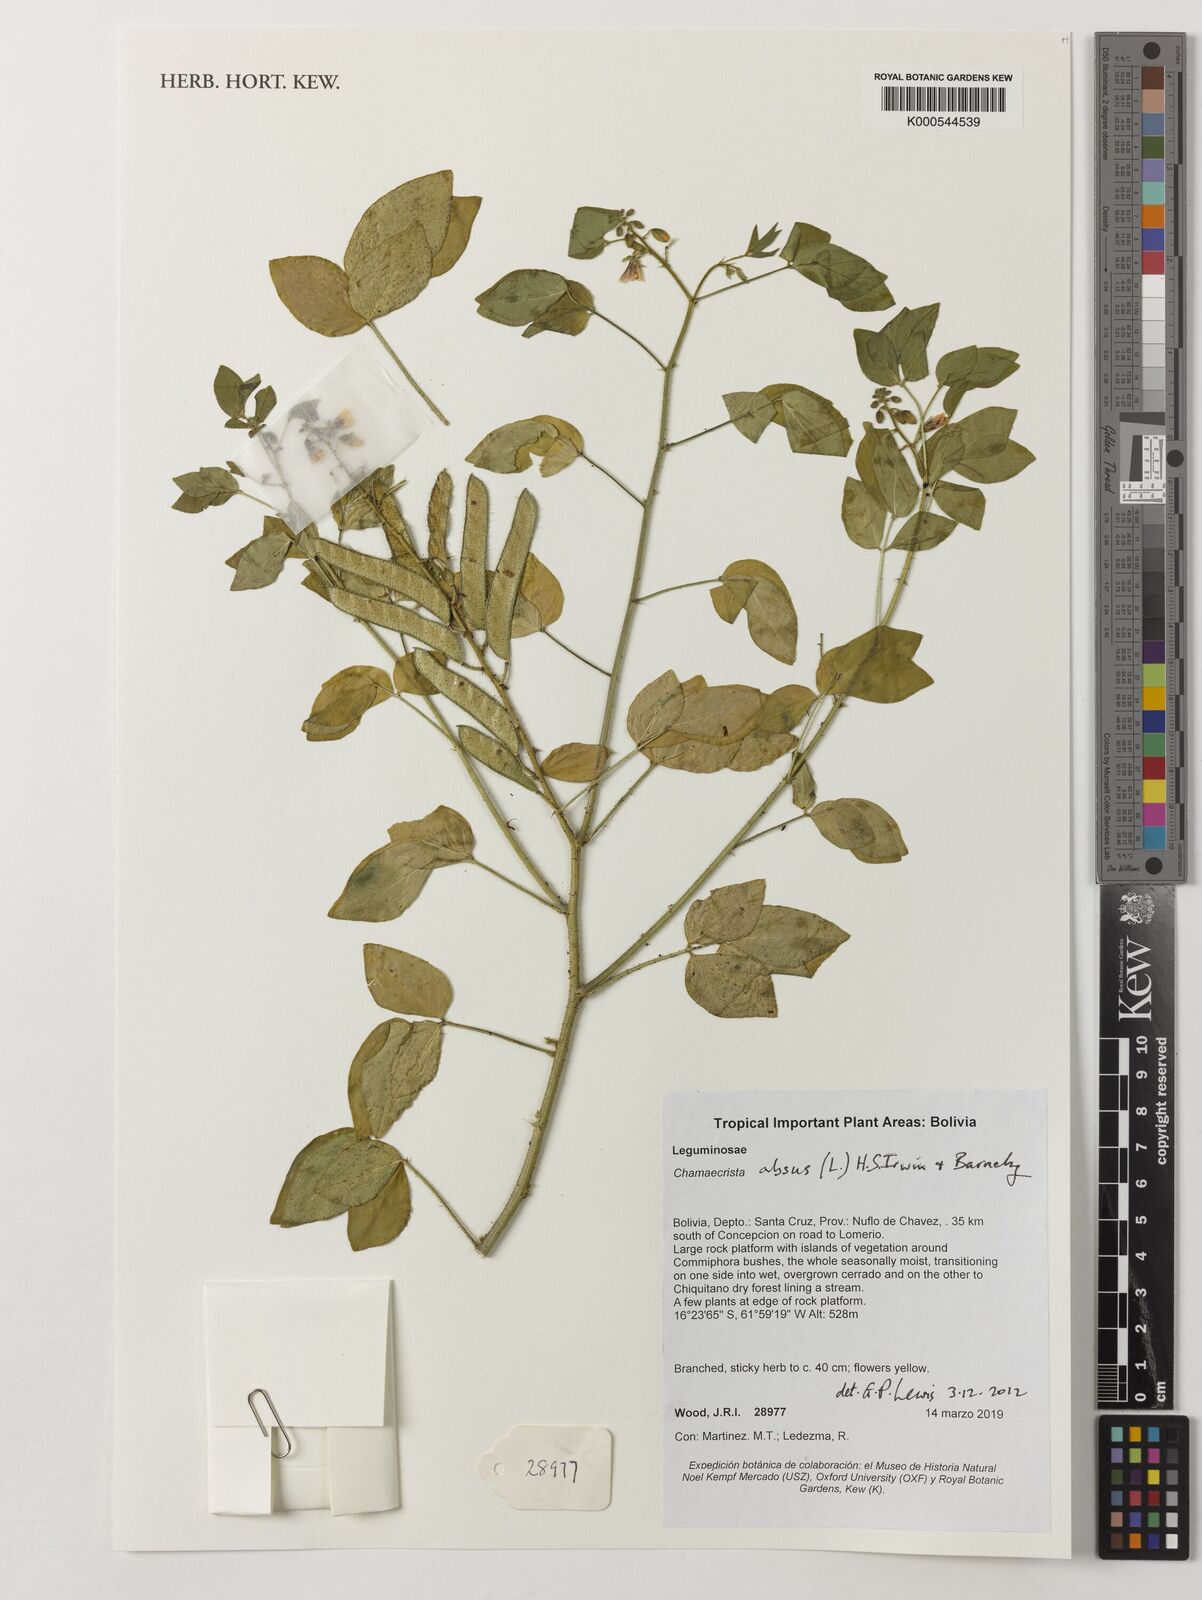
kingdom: Plantae
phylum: Tracheophyta
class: Magnoliopsida
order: Fabales
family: Fabaceae
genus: Chamaecrista
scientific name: Chamaecrista absus
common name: Tropical sensitive pea
